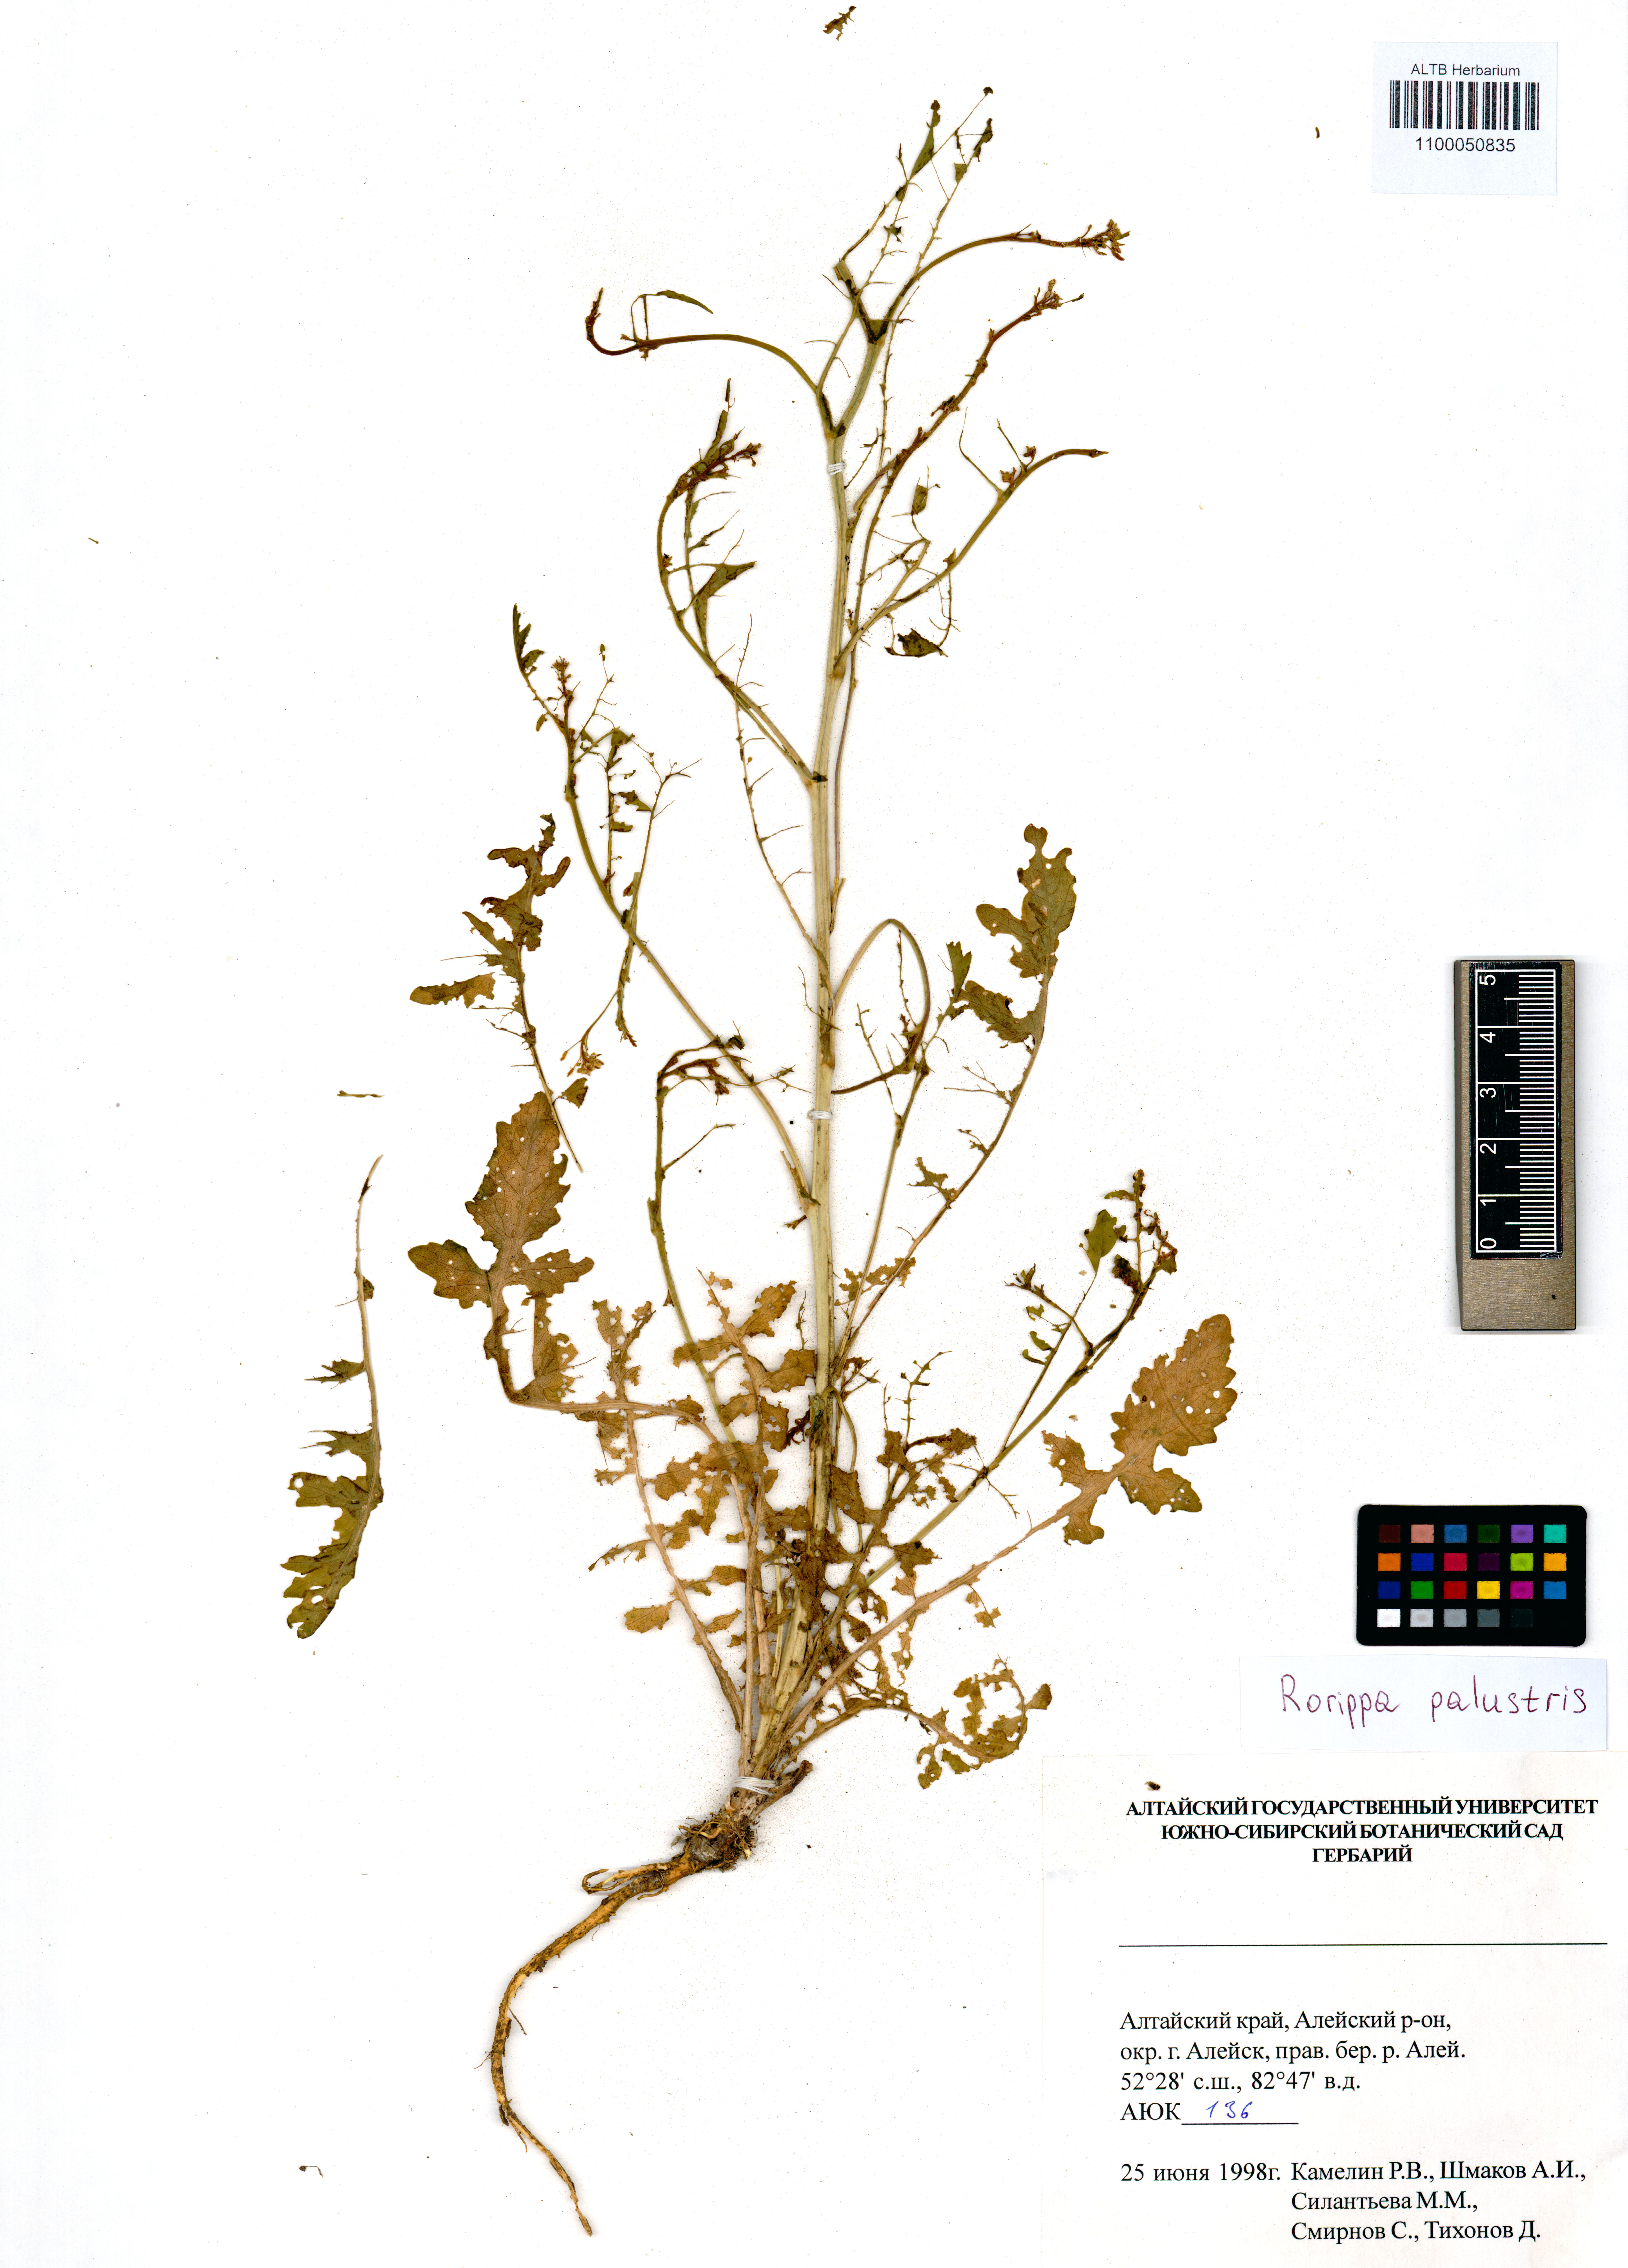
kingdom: Plantae
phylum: Tracheophyta
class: Magnoliopsida
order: Brassicales
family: Brassicaceae
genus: Rorippa
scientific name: Rorippa palustris
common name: Marsh yellow-cress
